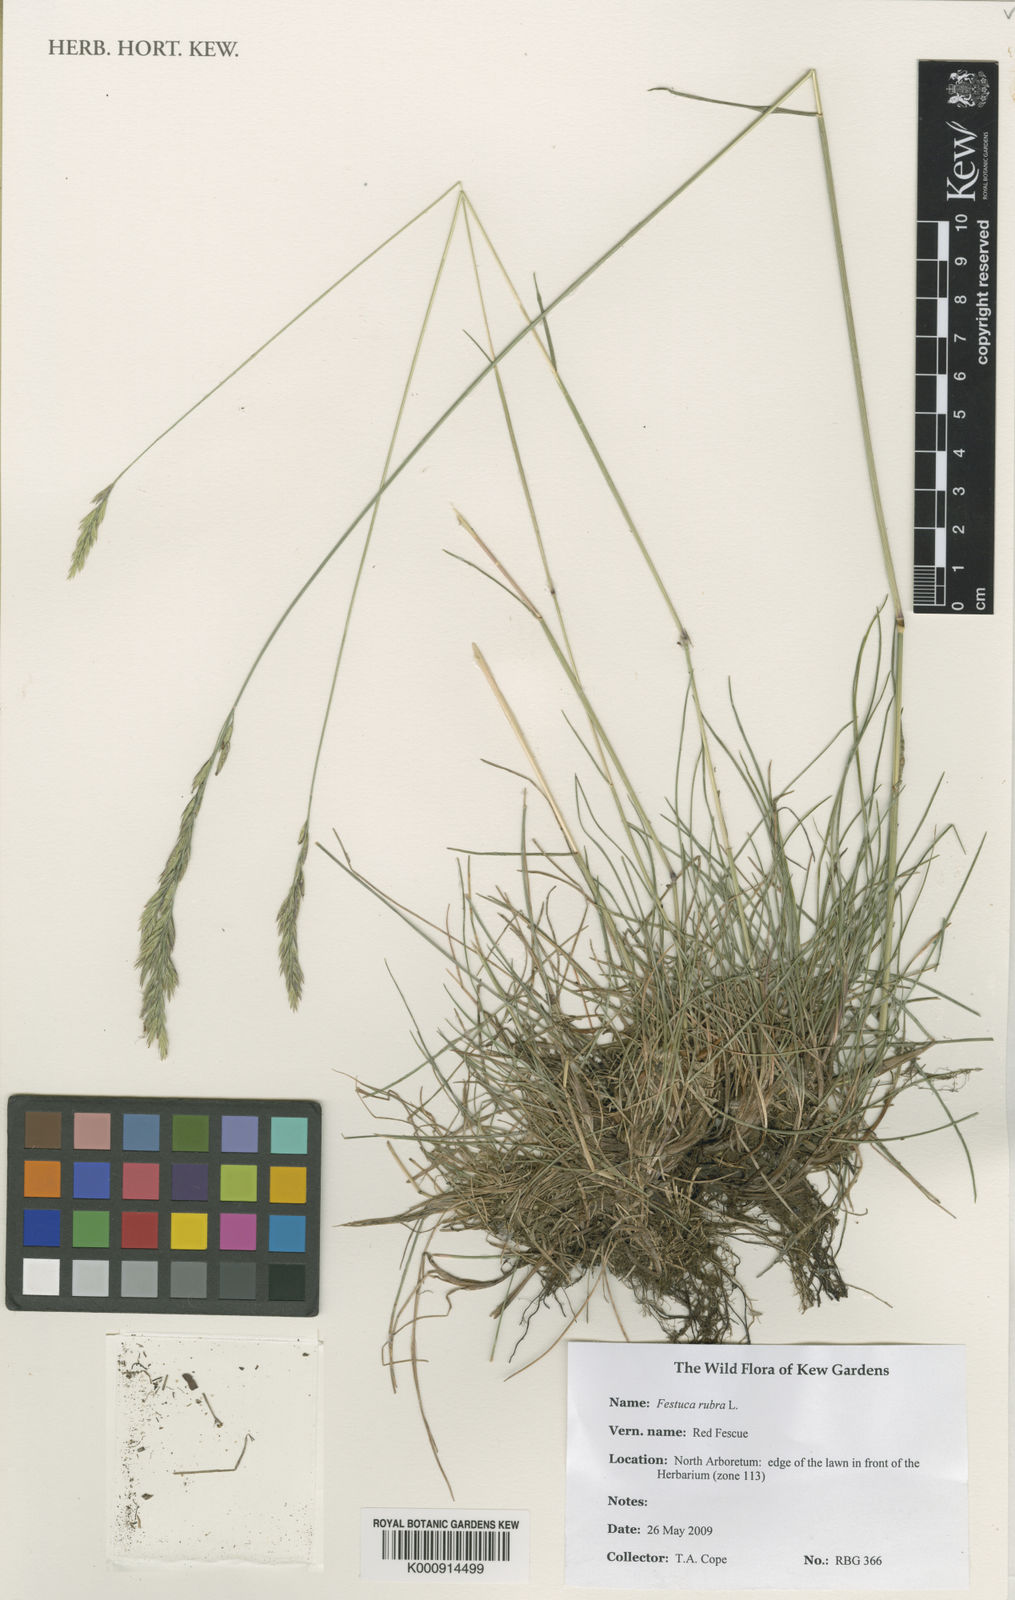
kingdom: Plantae
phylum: Tracheophyta
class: Liliopsida
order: Poales
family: Poaceae
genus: Festuca
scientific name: Festuca rubra
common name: Red fescue
